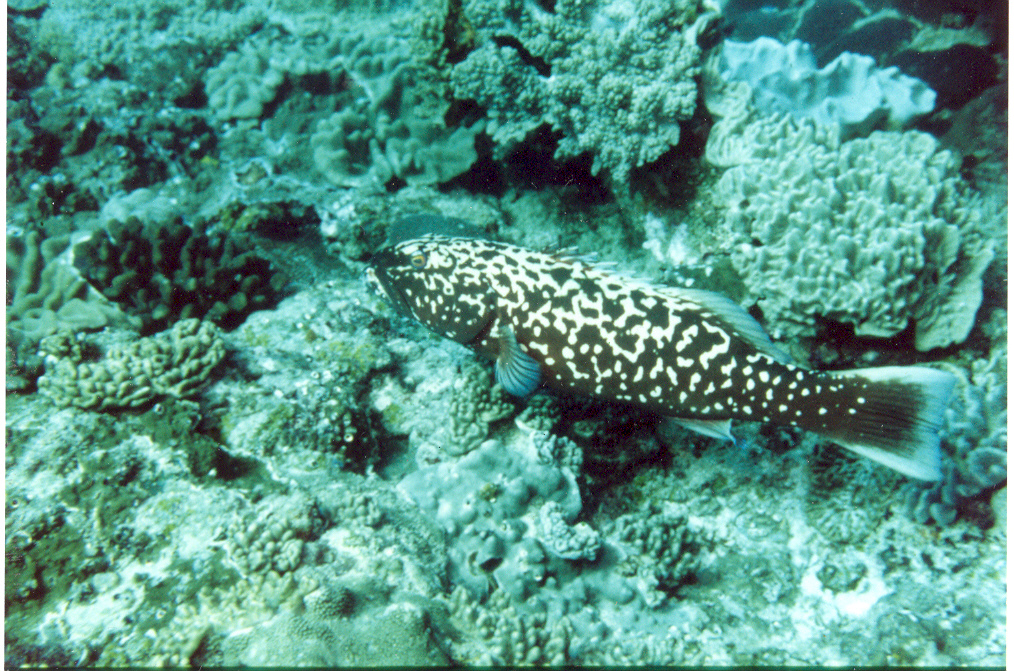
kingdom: Animalia
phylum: Chordata
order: Perciformes
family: Serranidae
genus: Plectropomus
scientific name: Plectropomus punctatus
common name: Marbled coralgrouper
